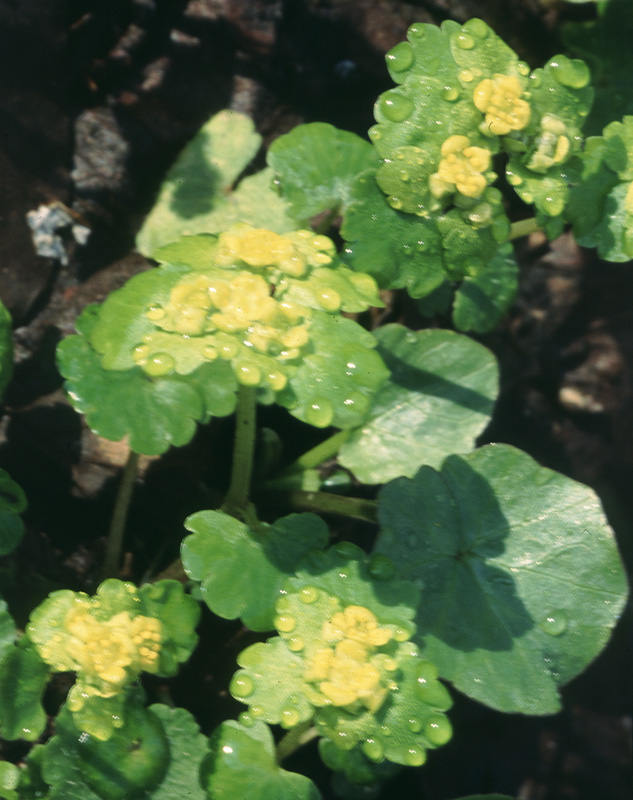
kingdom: Plantae
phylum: Tracheophyta
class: Magnoliopsida
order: Saxifragales
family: Saxifragaceae
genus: Chrysosplenium
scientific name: Chrysosplenium alternifolium
